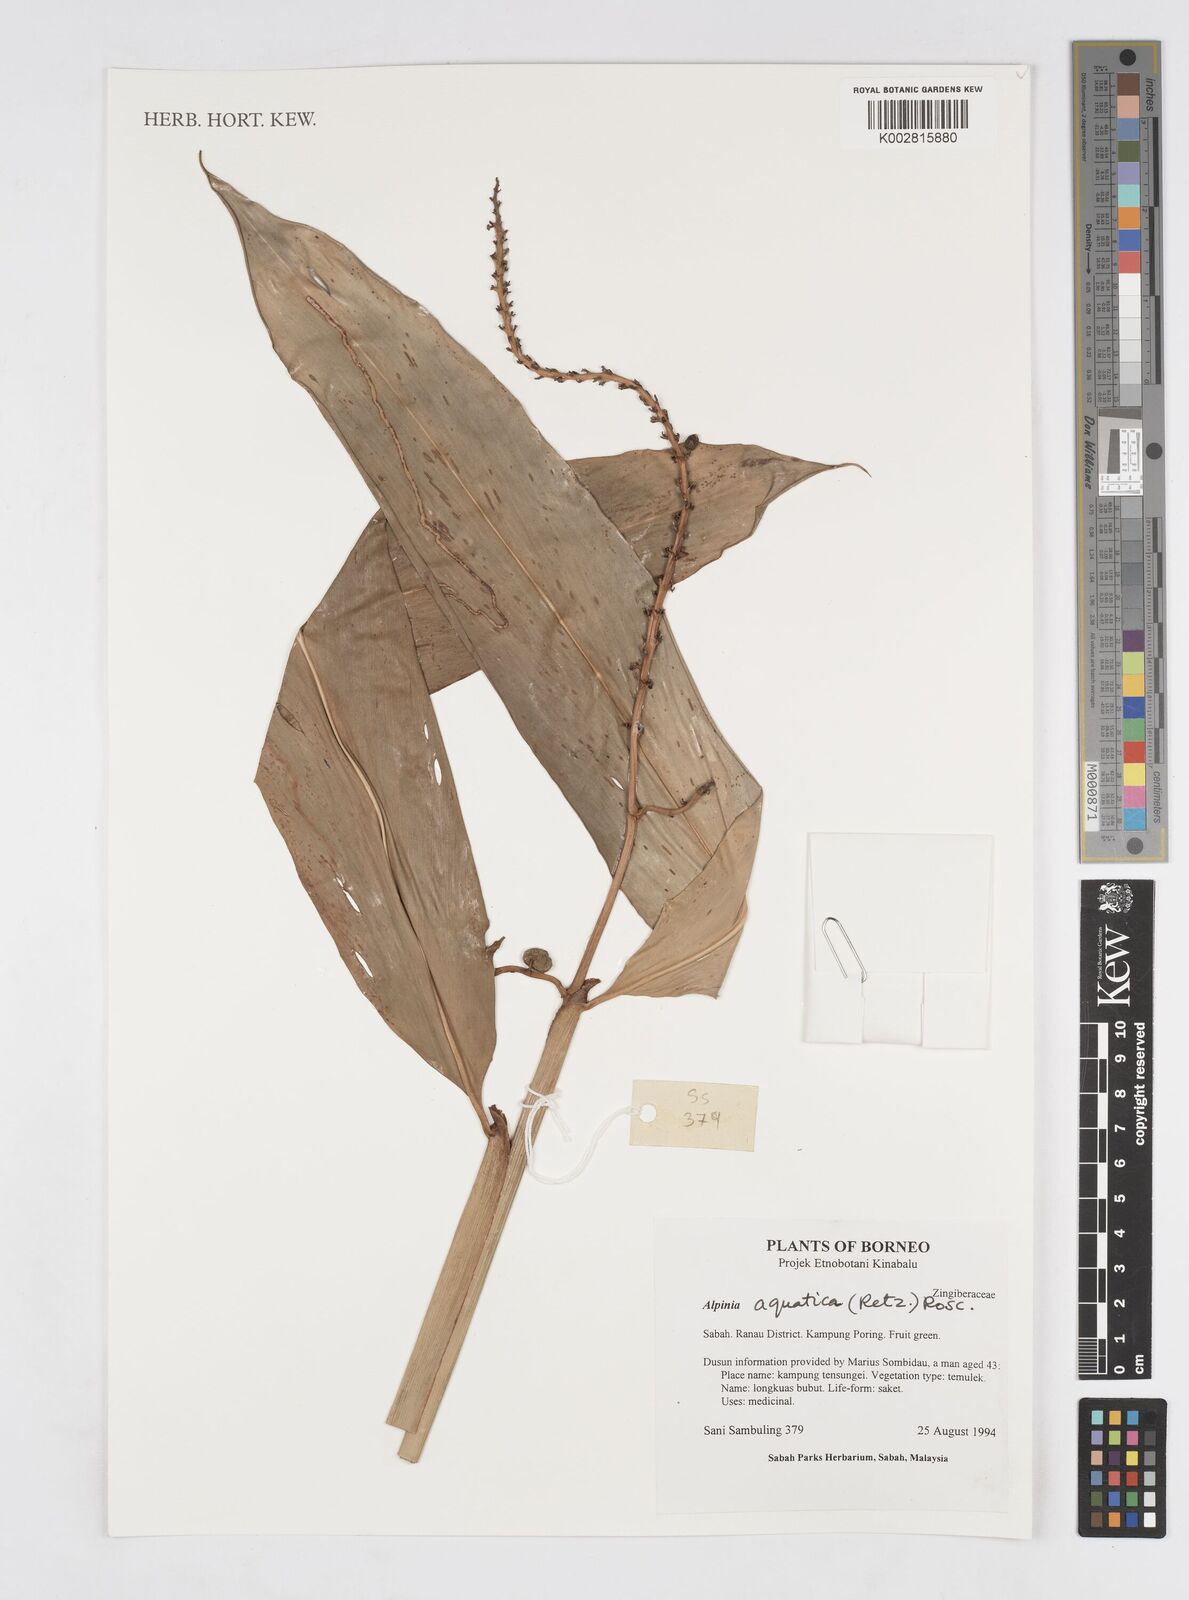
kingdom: Plantae
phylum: Tracheophyta
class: Liliopsida
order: Zingiberales
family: Zingiberaceae
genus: Alpinia
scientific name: Alpinia aquatica
